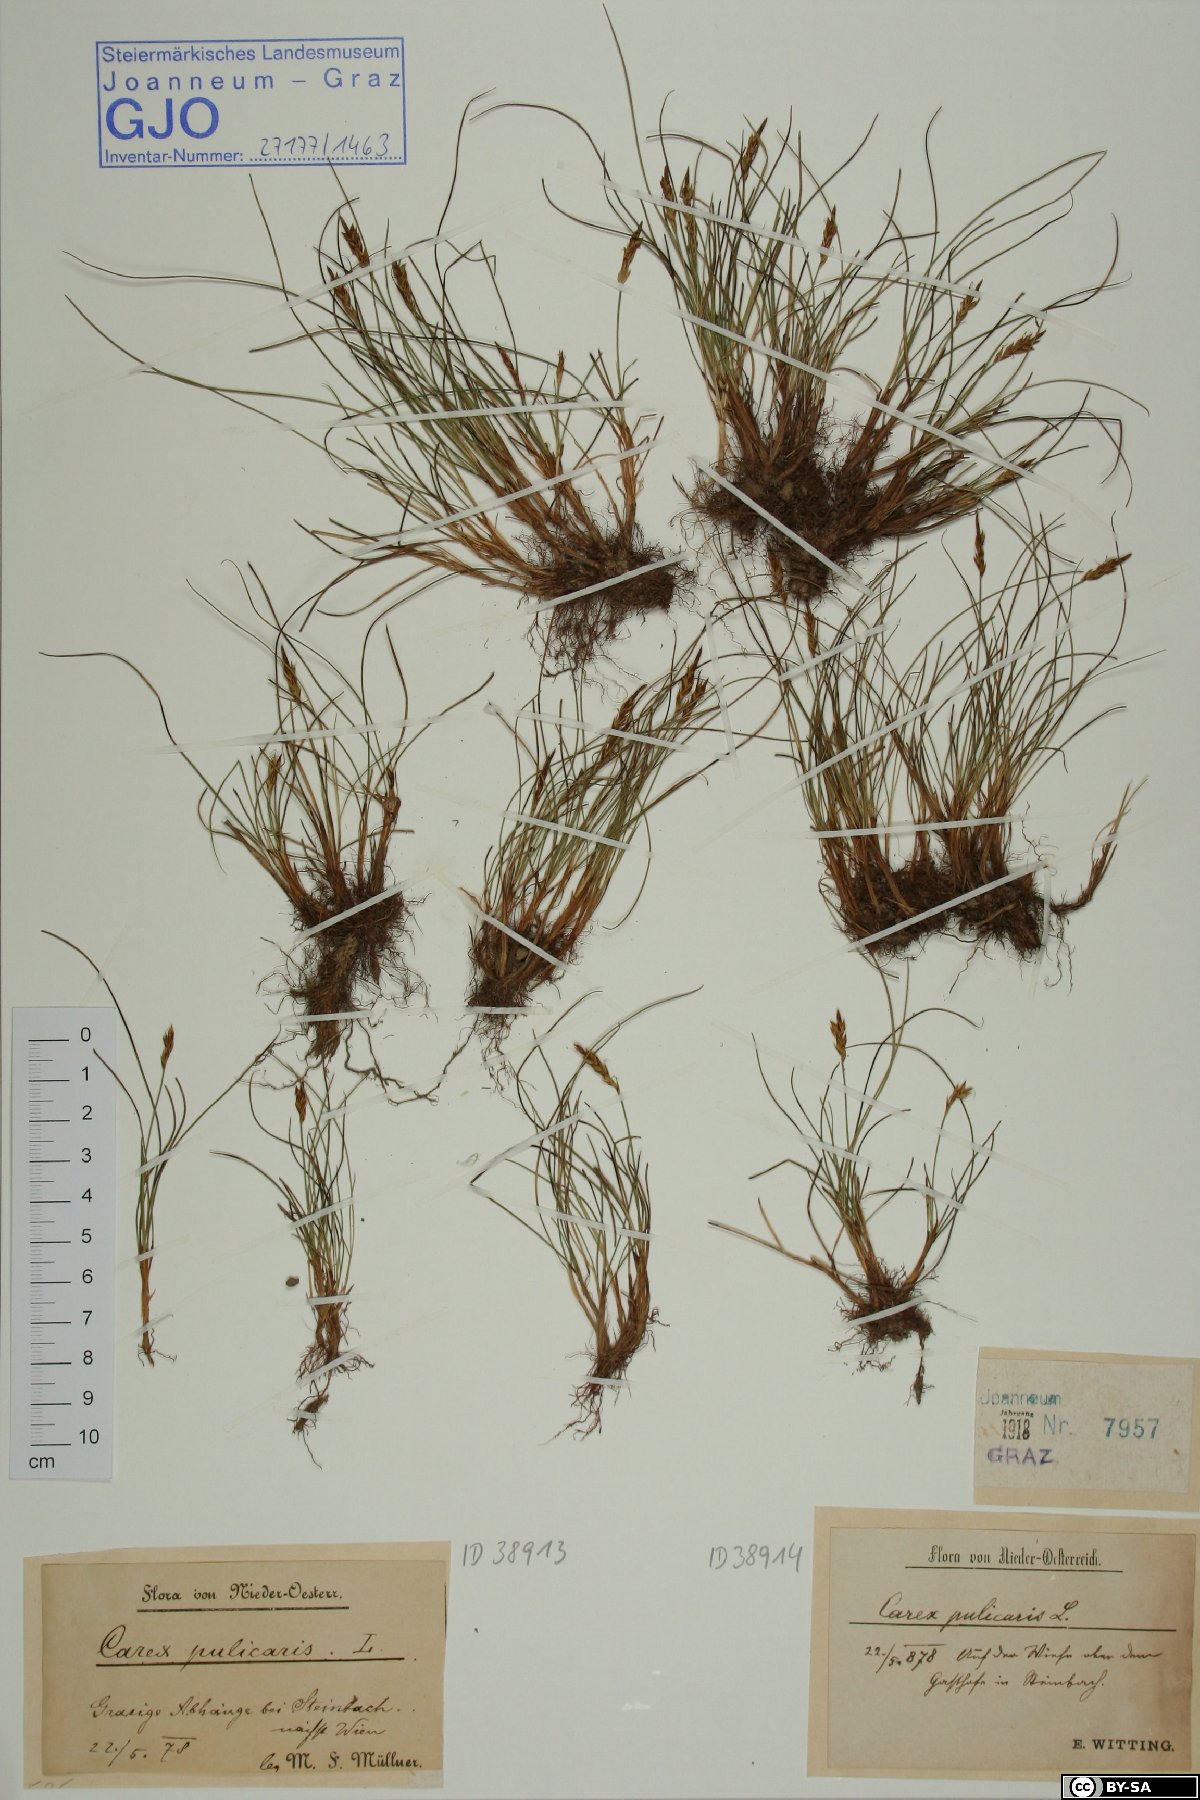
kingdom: Plantae
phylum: Tracheophyta
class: Liliopsida
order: Poales
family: Cyperaceae
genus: Carex
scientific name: Carex pulicaris
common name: Flea sedge
